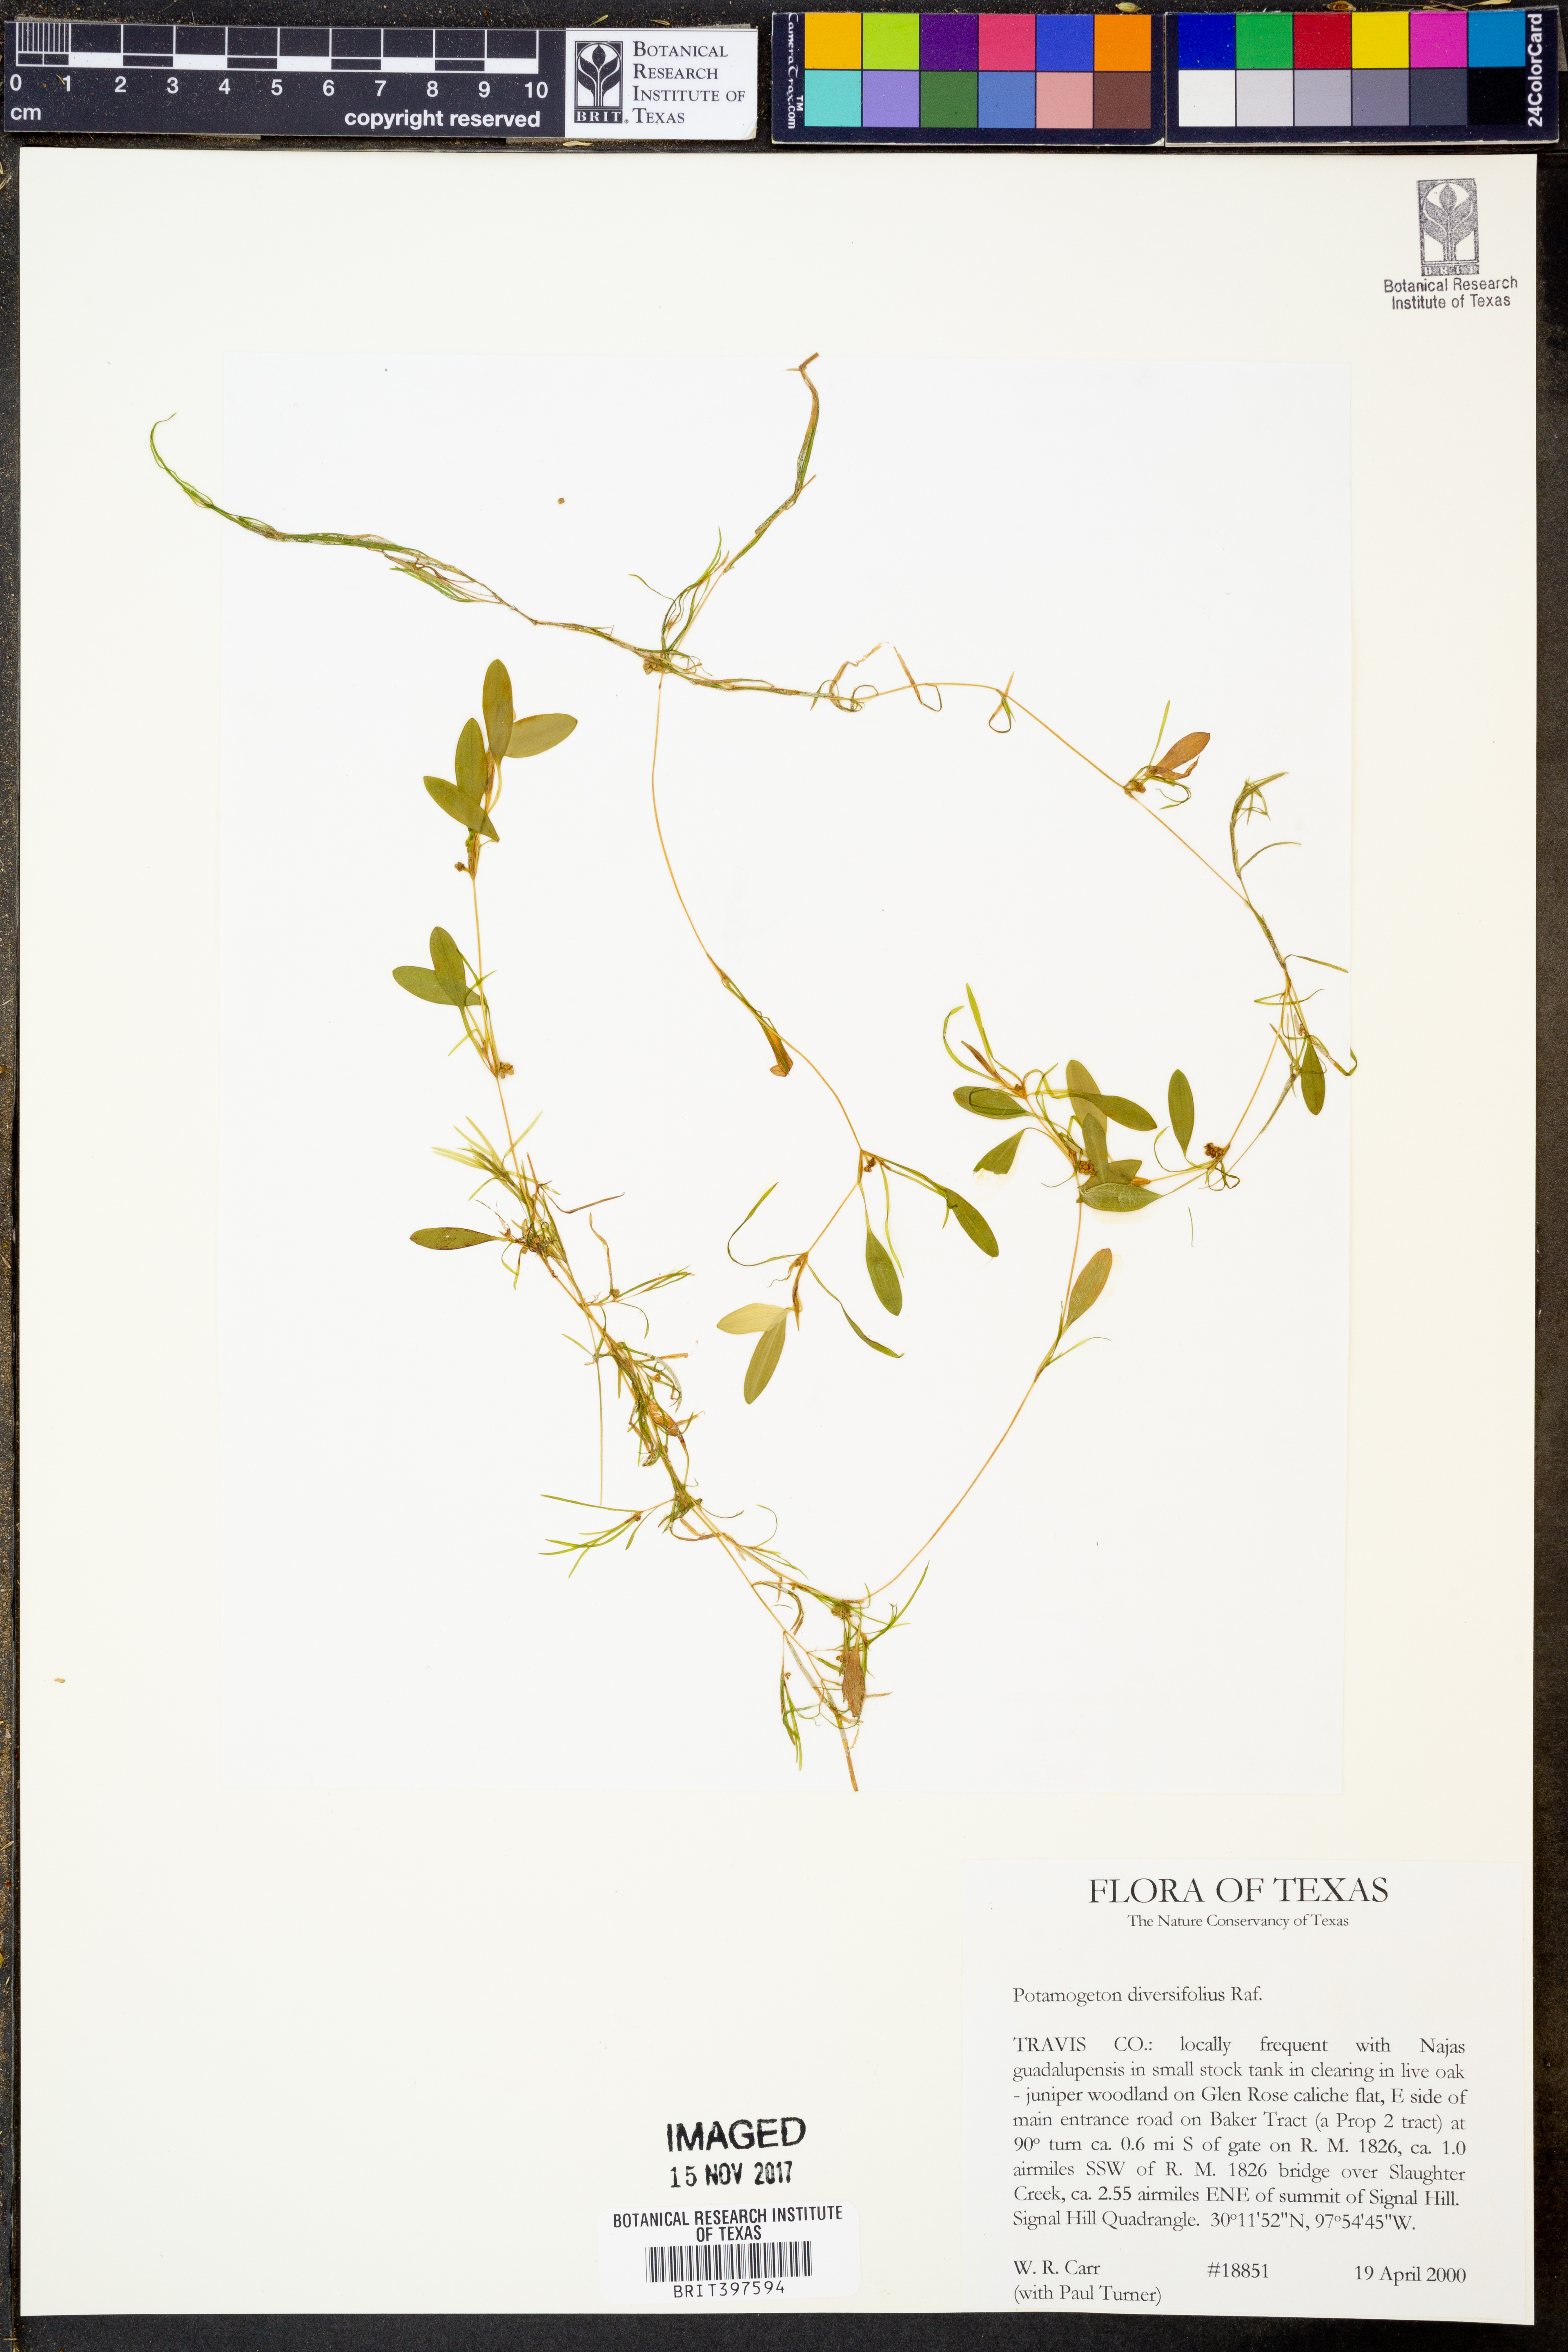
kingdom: Plantae
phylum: Tracheophyta
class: Liliopsida
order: Alismatales
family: Potamogetonaceae
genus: Potamogeton
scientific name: Potamogeton diversifolius
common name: Water-thread pondweed
